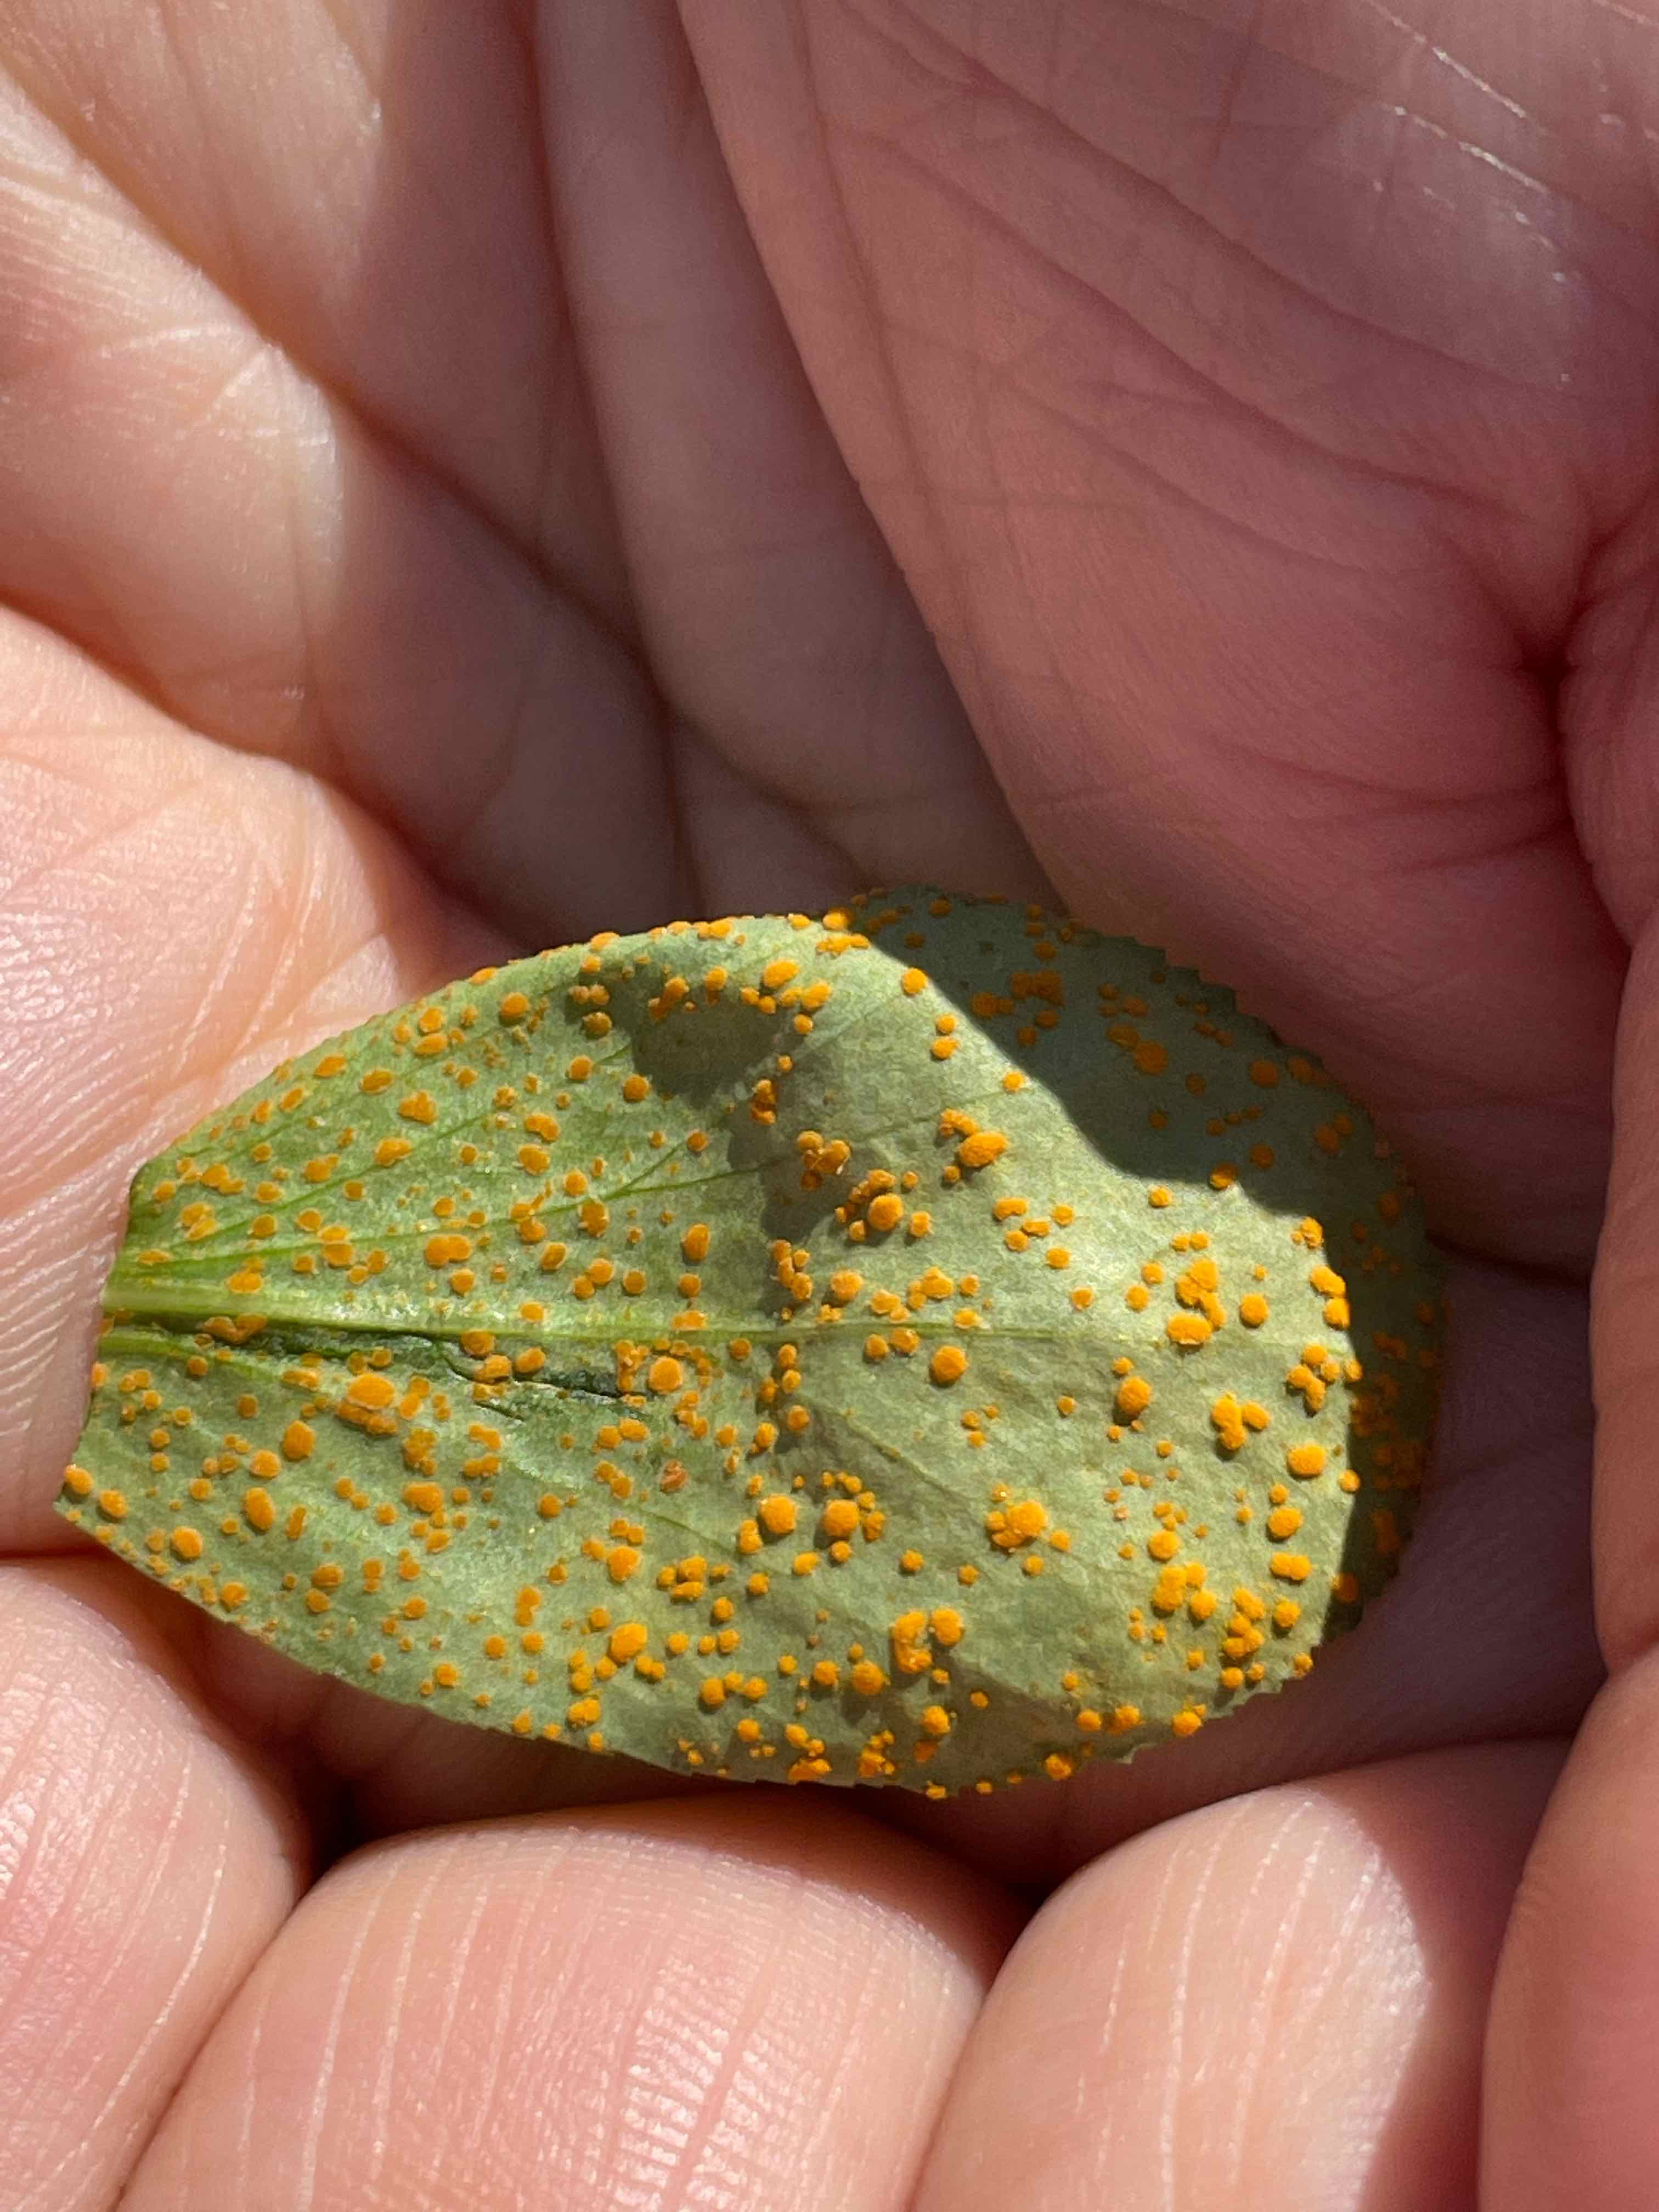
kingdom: Fungi
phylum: Basidiomycota
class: Pucciniomycetes
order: Pucciniales
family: Melampsoraceae
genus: Melampsora
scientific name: Melampsora euphorbiae
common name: vortemælk-skorperust
